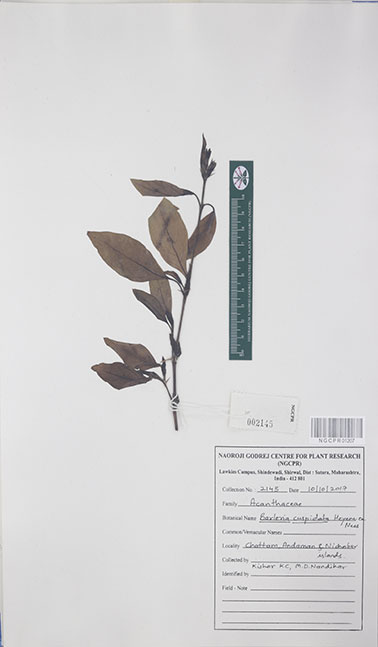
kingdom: Plantae
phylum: Tracheophyta
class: Magnoliopsida
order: Lamiales
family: Acanthaceae
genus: Barleria
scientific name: Barleria cuspidata
